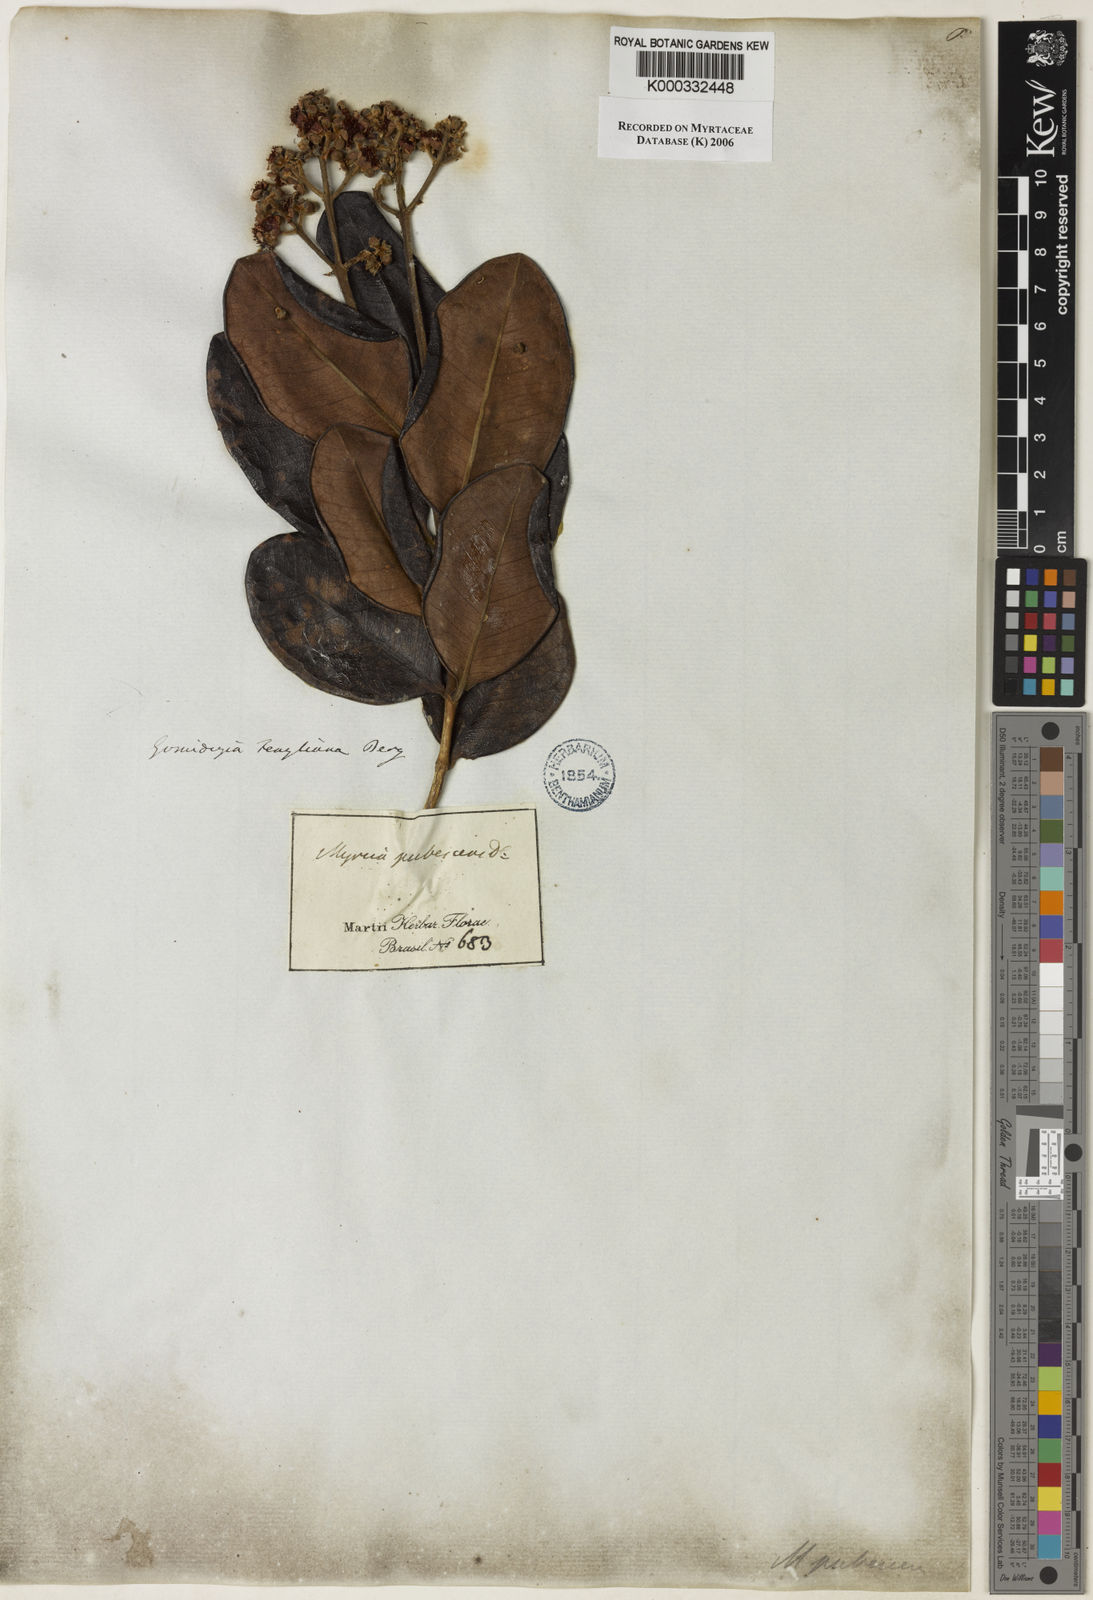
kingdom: Plantae
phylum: Tracheophyta
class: Magnoliopsida
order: Myrtales
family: Myrtaceae
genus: Myrcia
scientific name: Myrcia ilheosensis
